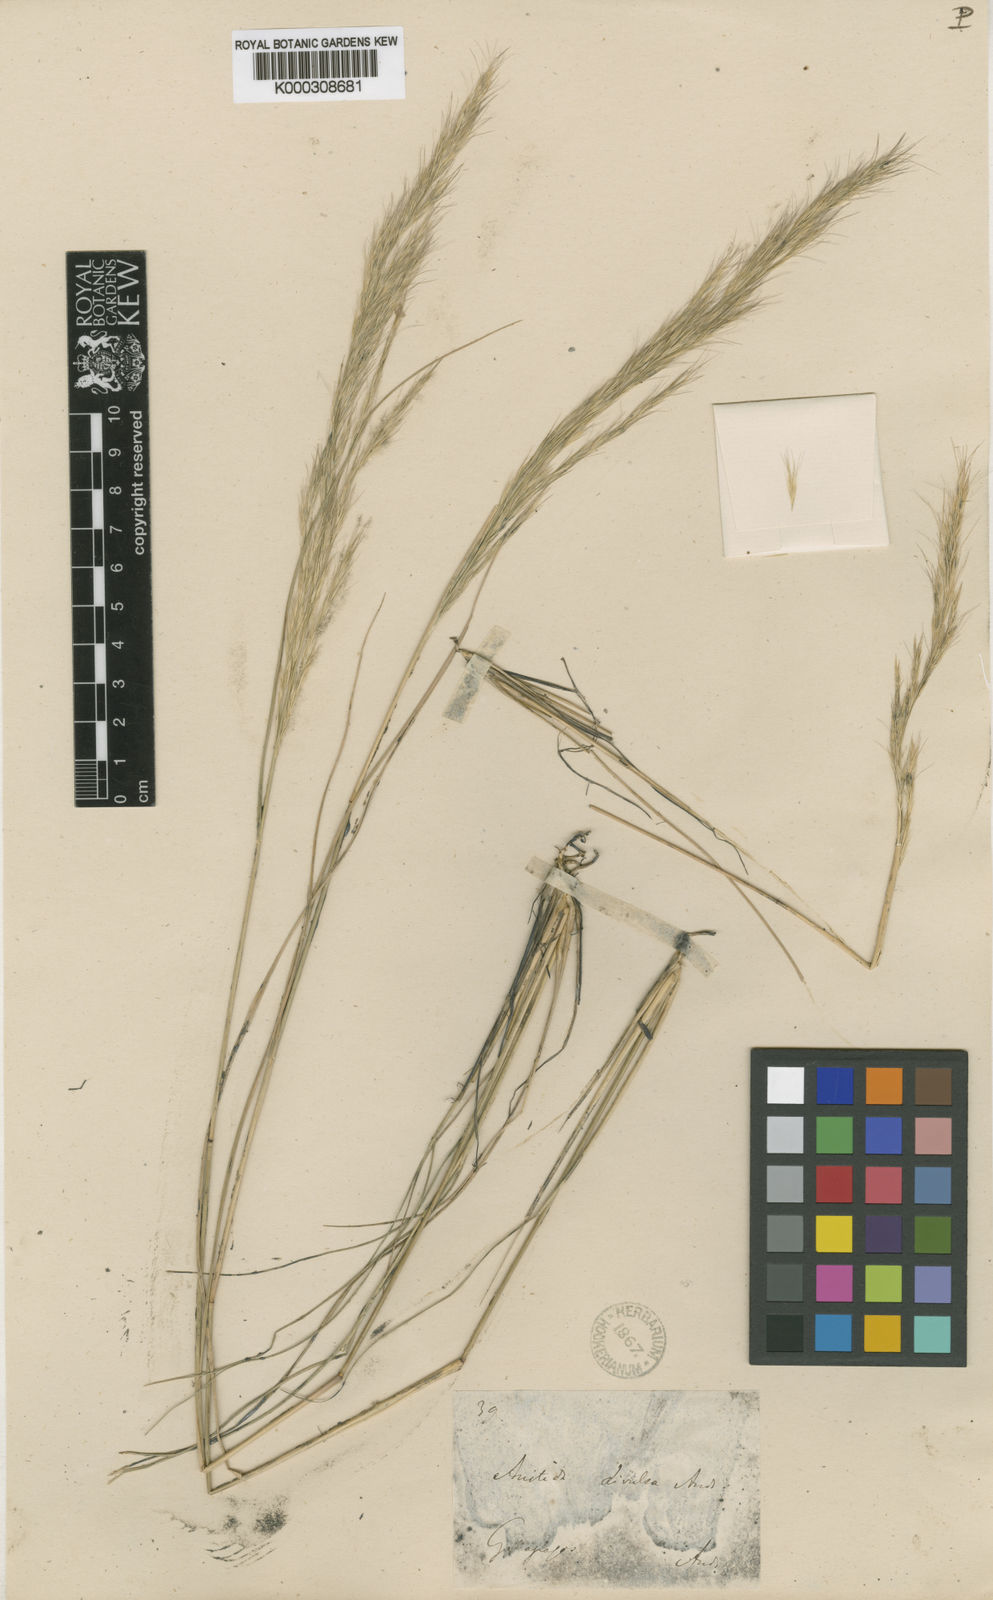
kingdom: Plantae
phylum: Tracheophyta
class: Liliopsida
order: Poales
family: Poaceae
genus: Aristida
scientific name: Aristida divulsa
